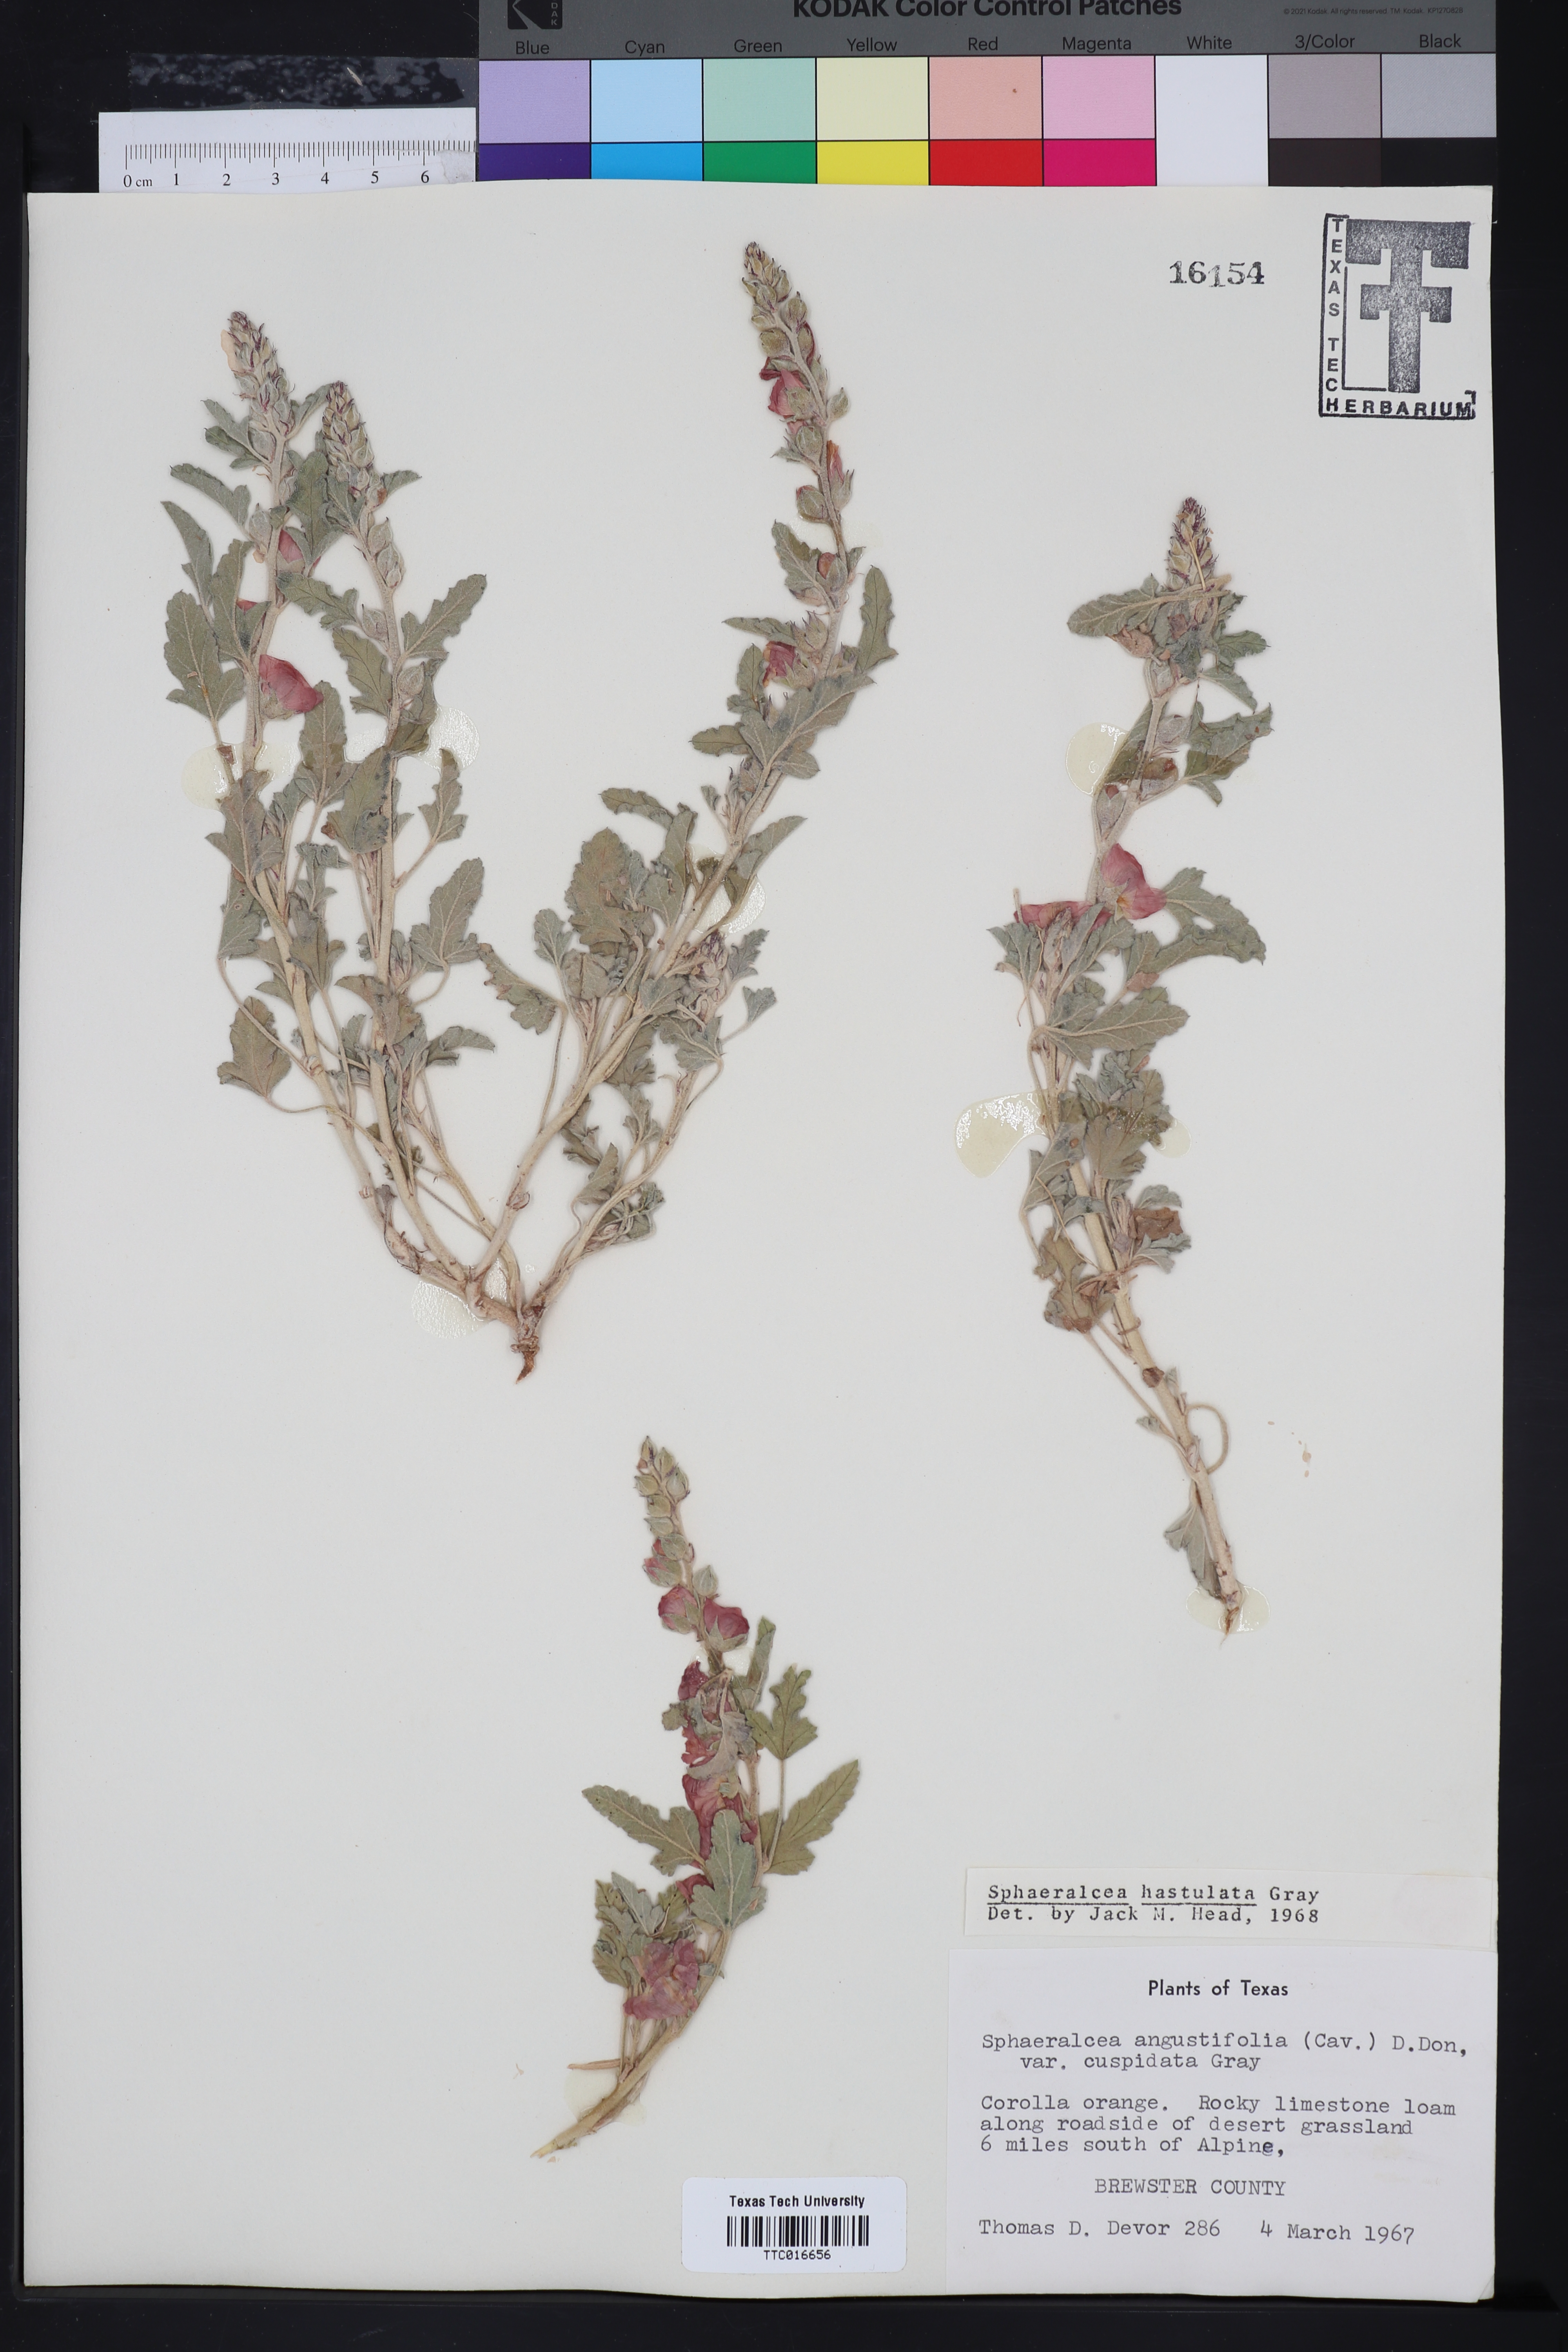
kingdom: Plantae
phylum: Tracheophyta
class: Magnoliopsida
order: Malvales
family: Malvaceae
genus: Sphaeralcea
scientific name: Sphaeralcea hastulata
